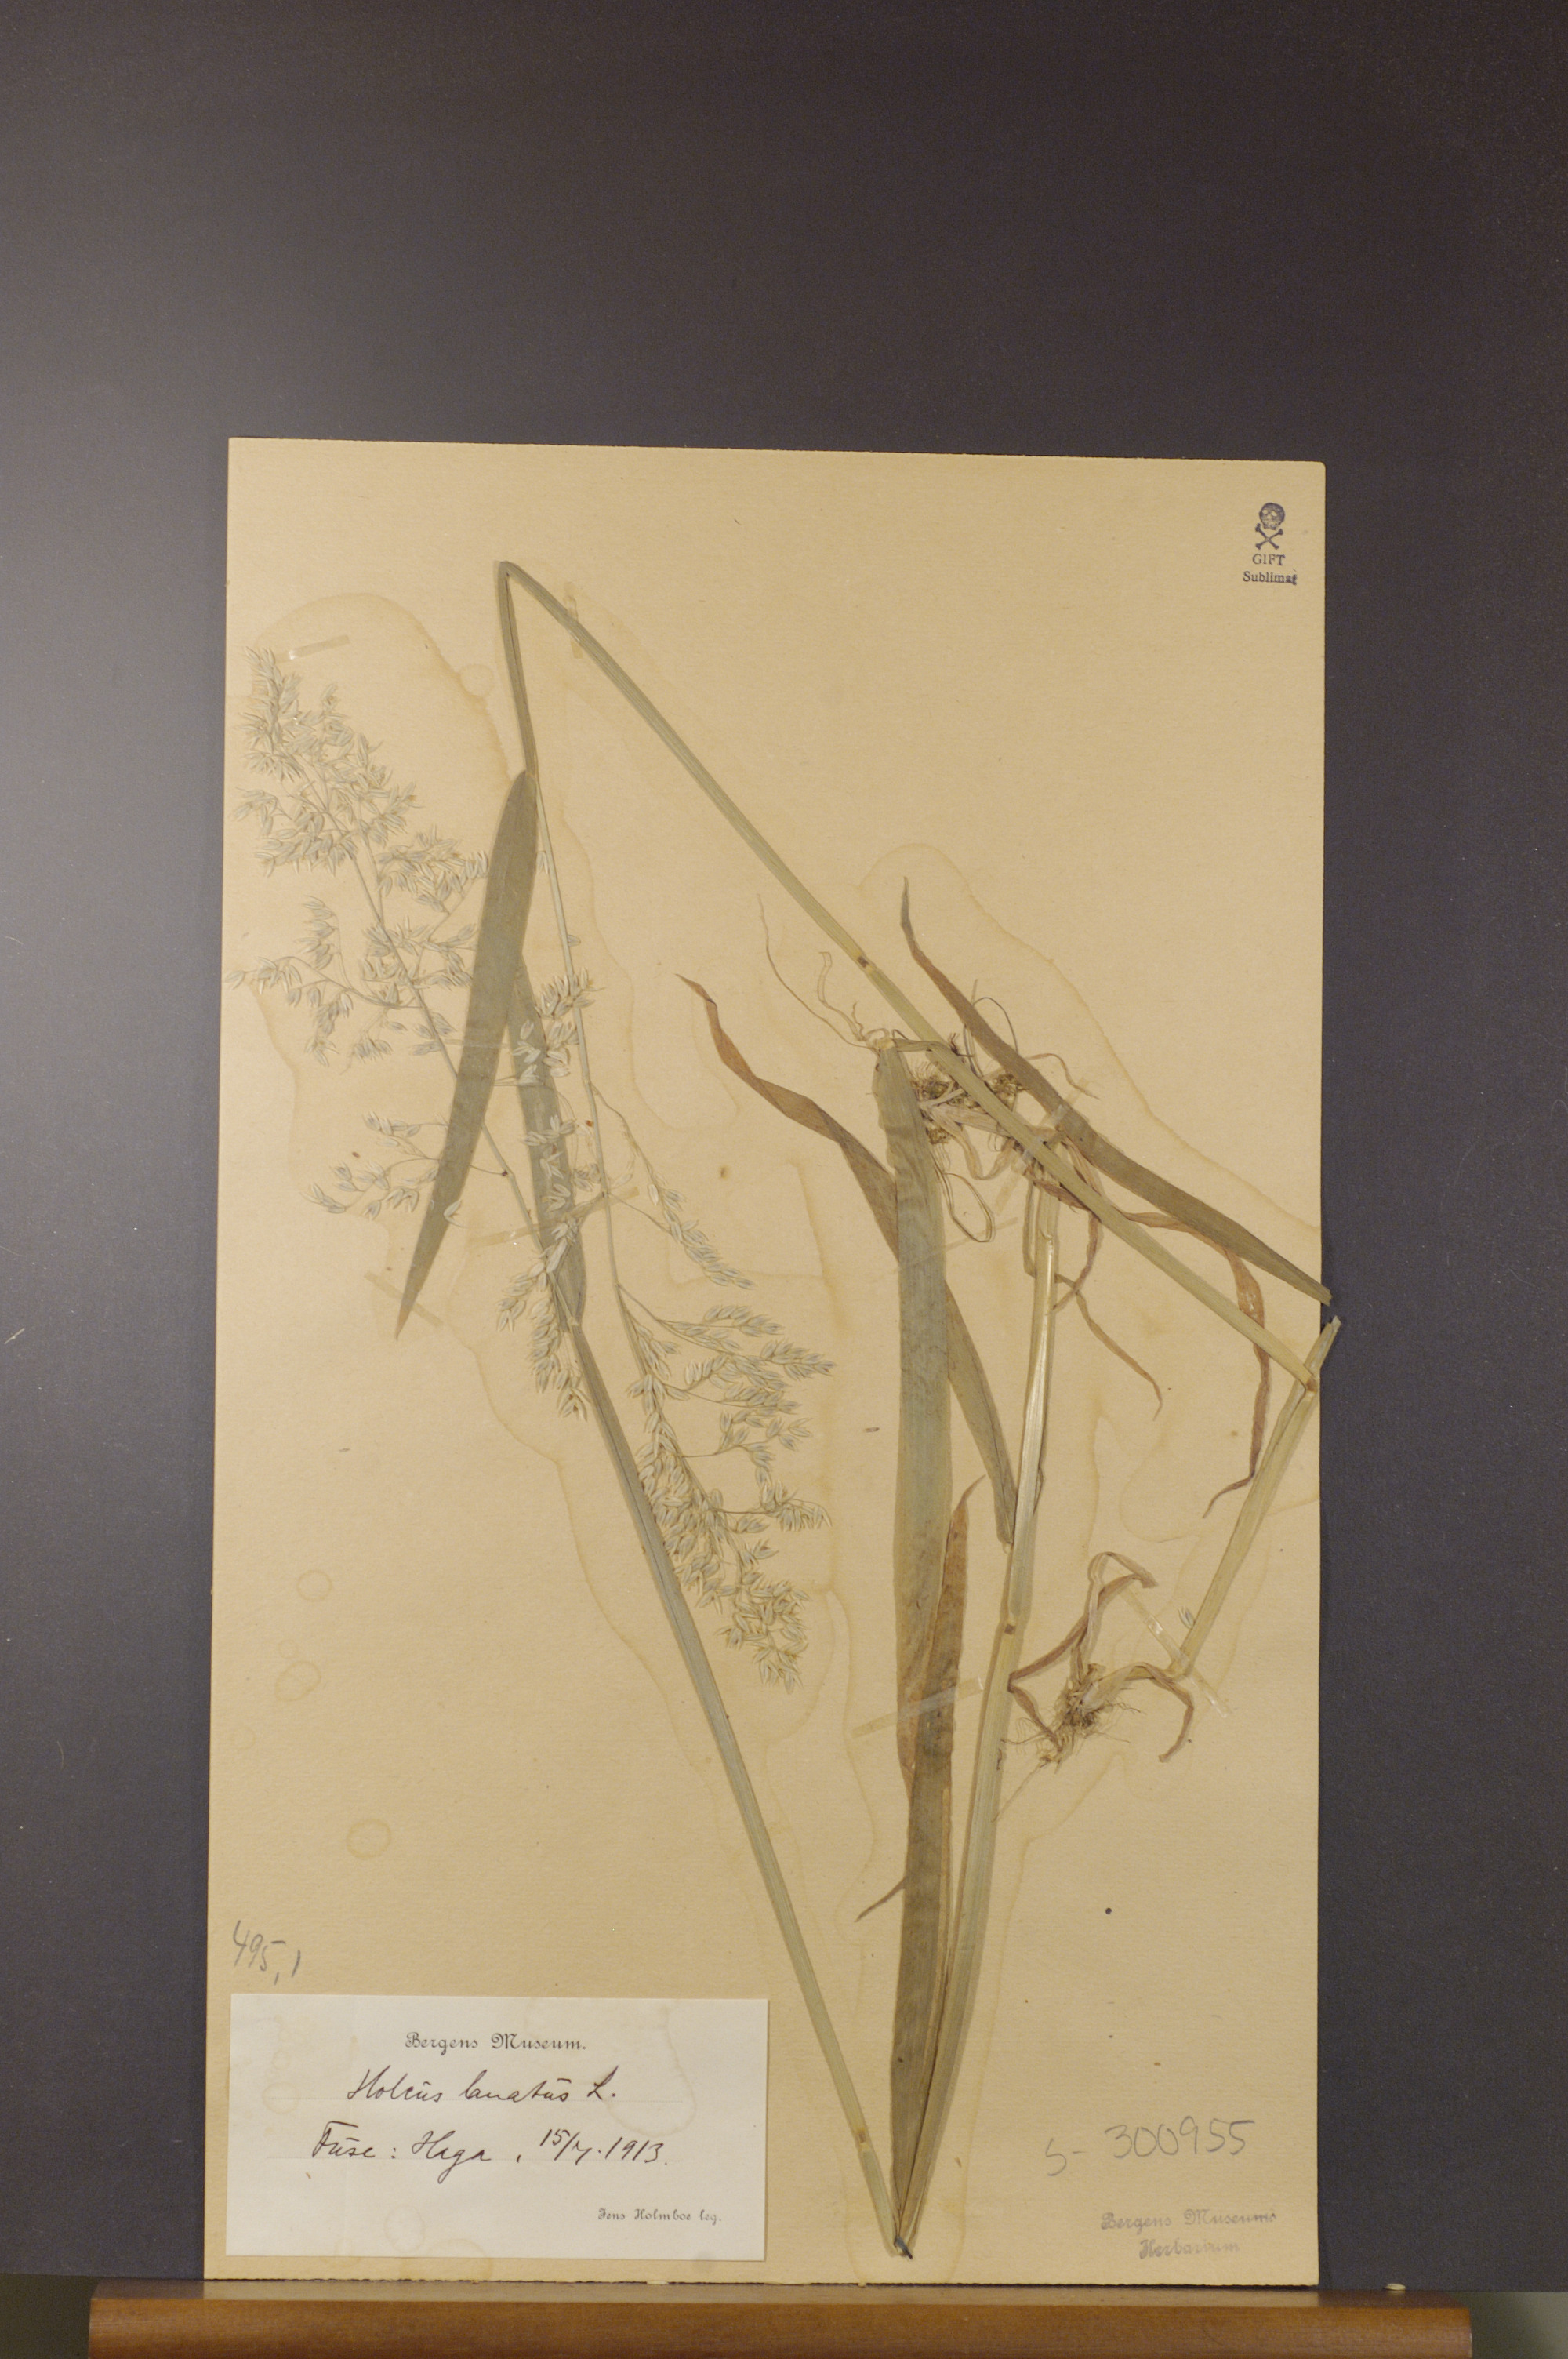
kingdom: Plantae
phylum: Tracheophyta
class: Liliopsida
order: Poales
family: Poaceae
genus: Holcus
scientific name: Holcus lanatus
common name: Yorkshire-fog
